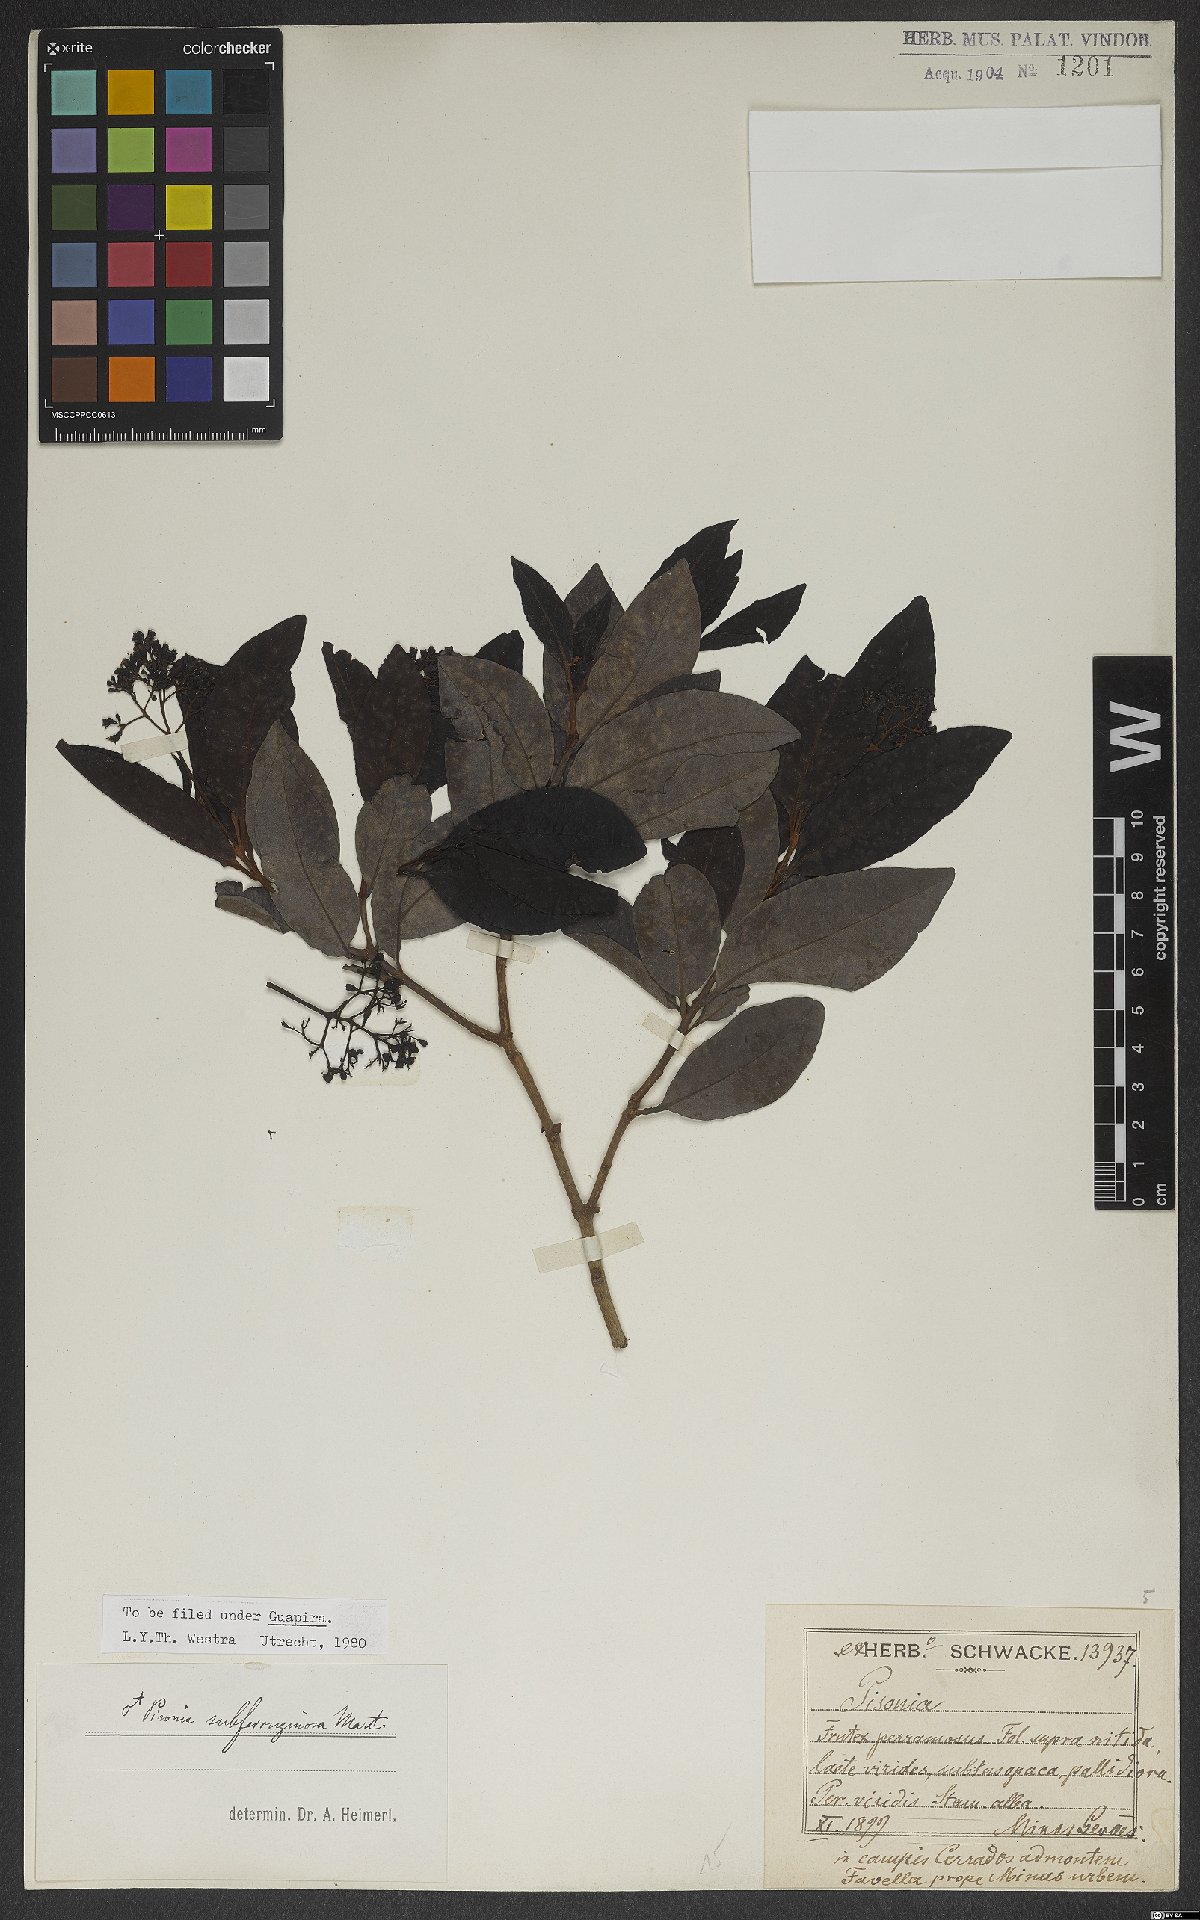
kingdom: Plantae
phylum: Tracheophyta
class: Magnoliopsida
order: Caryophyllales
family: Nyctaginaceae
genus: Guapira
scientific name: Guapira graciliflora
